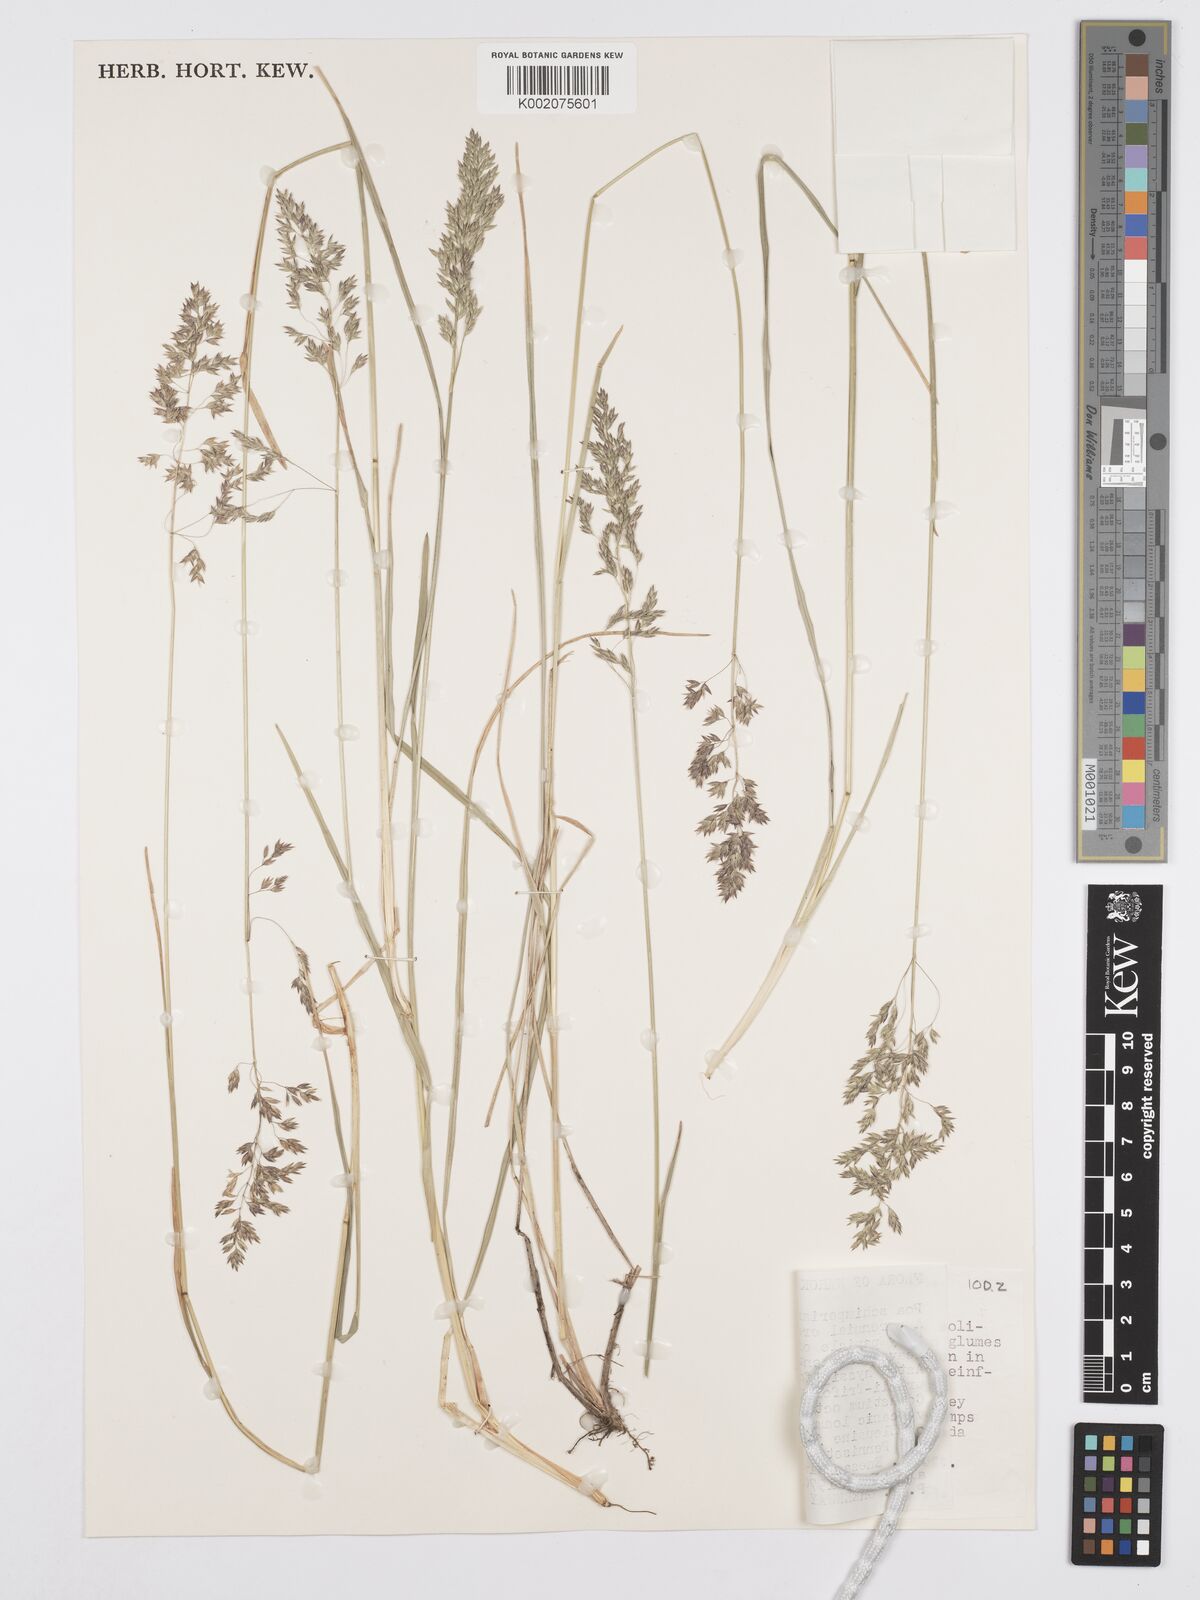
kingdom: Plantae
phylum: Tracheophyta
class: Liliopsida
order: Poales
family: Poaceae
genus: Poa
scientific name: Poa schimperiana
